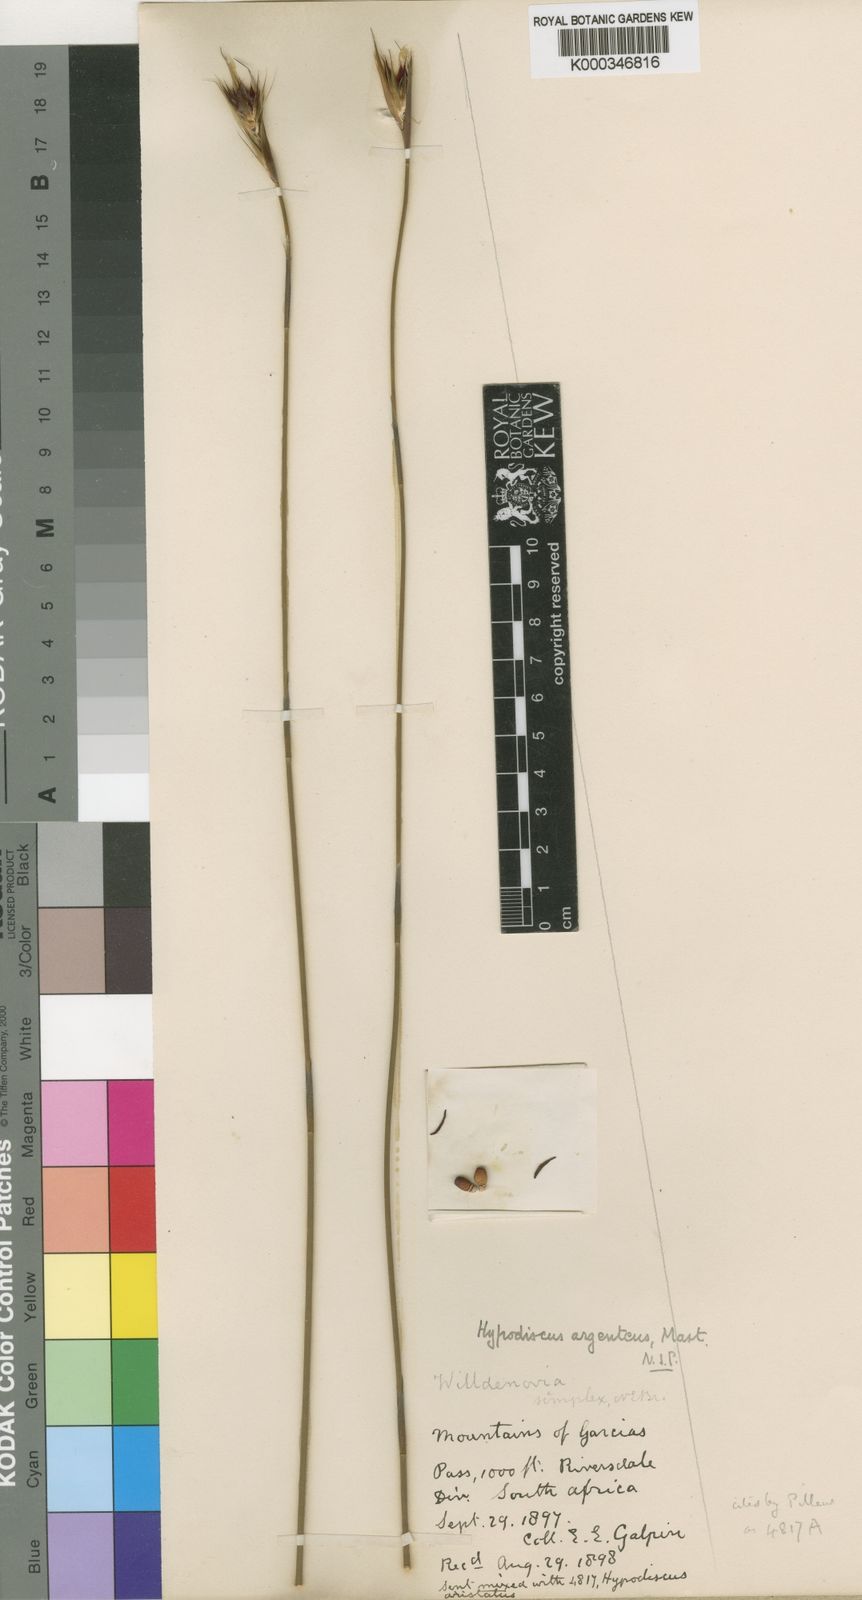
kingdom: Plantae
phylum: Tracheophyta
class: Liliopsida
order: Poales
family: Restionaceae
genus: Hypodiscus
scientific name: Hypodiscus argenteus
